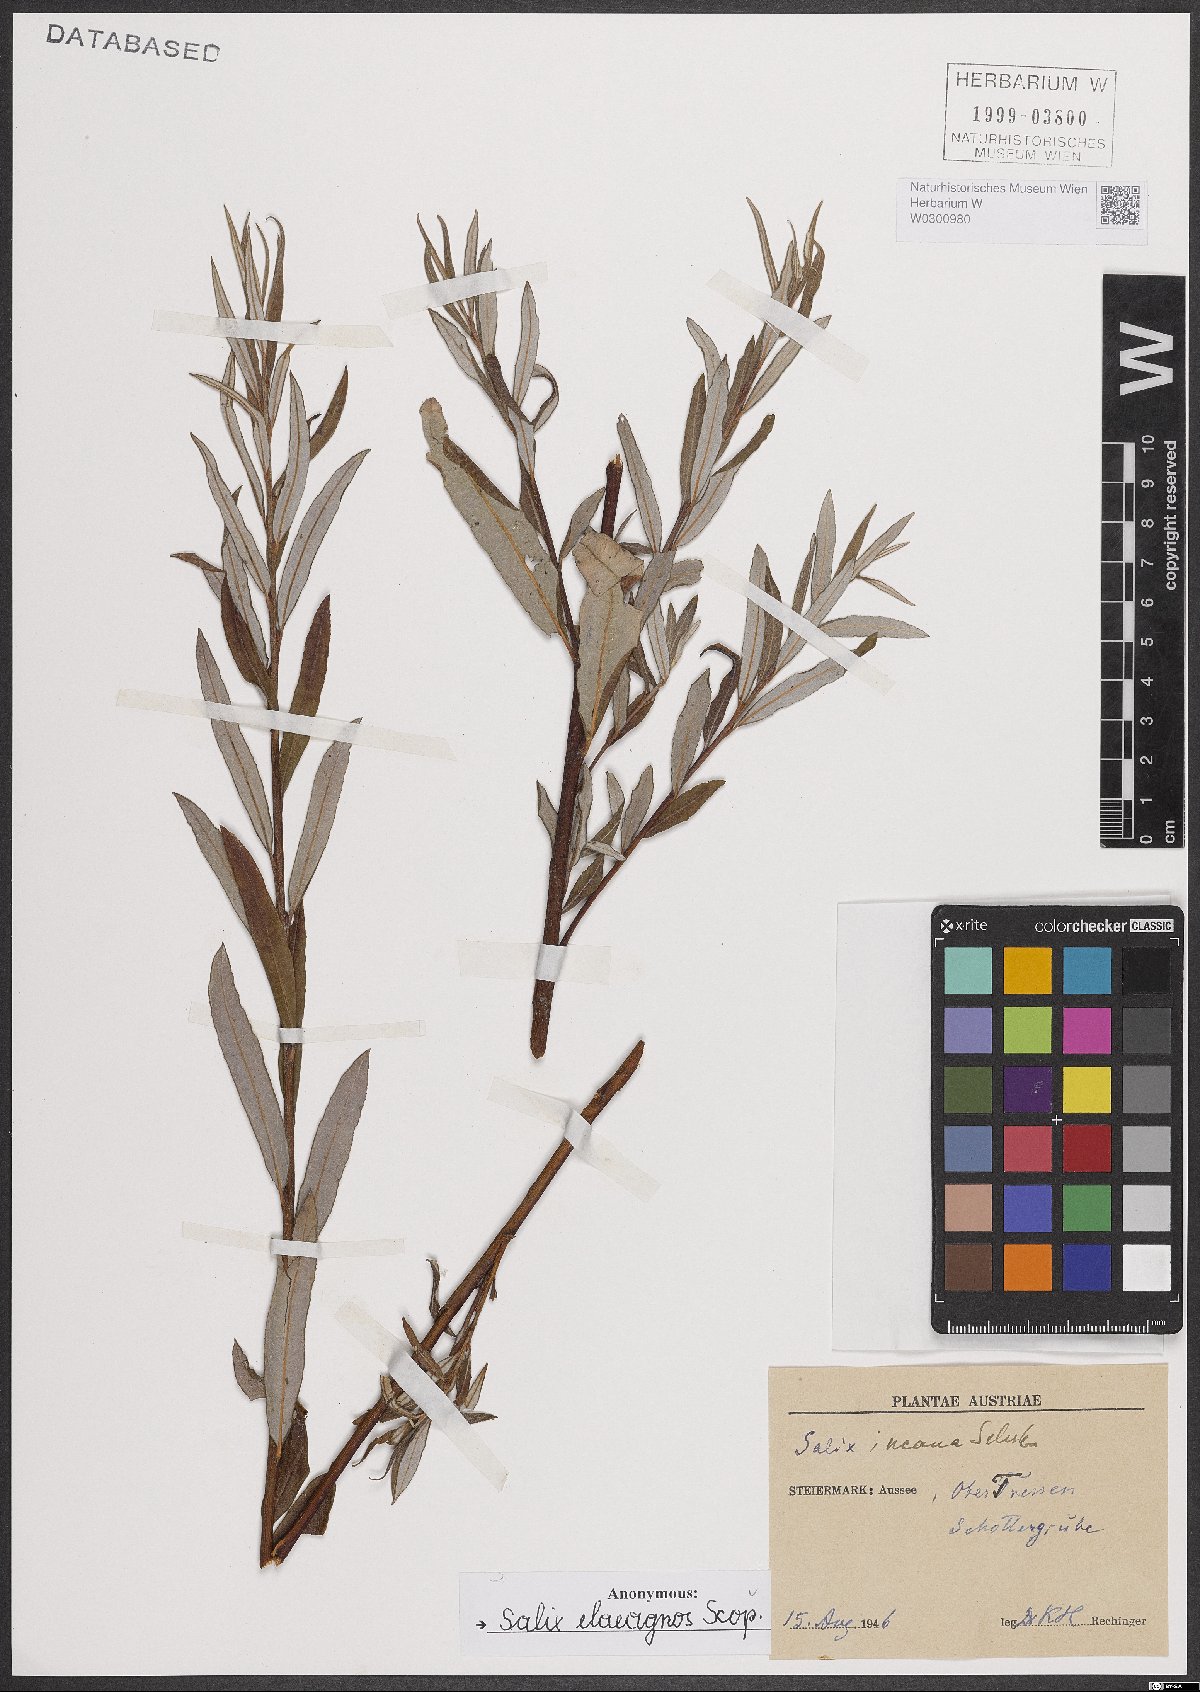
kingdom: Plantae
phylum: Tracheophyta
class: Magnoliopsida
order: Malpighiales
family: Salicaceae
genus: Salix
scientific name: Salix eleagnos
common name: Elaeagnus willow
